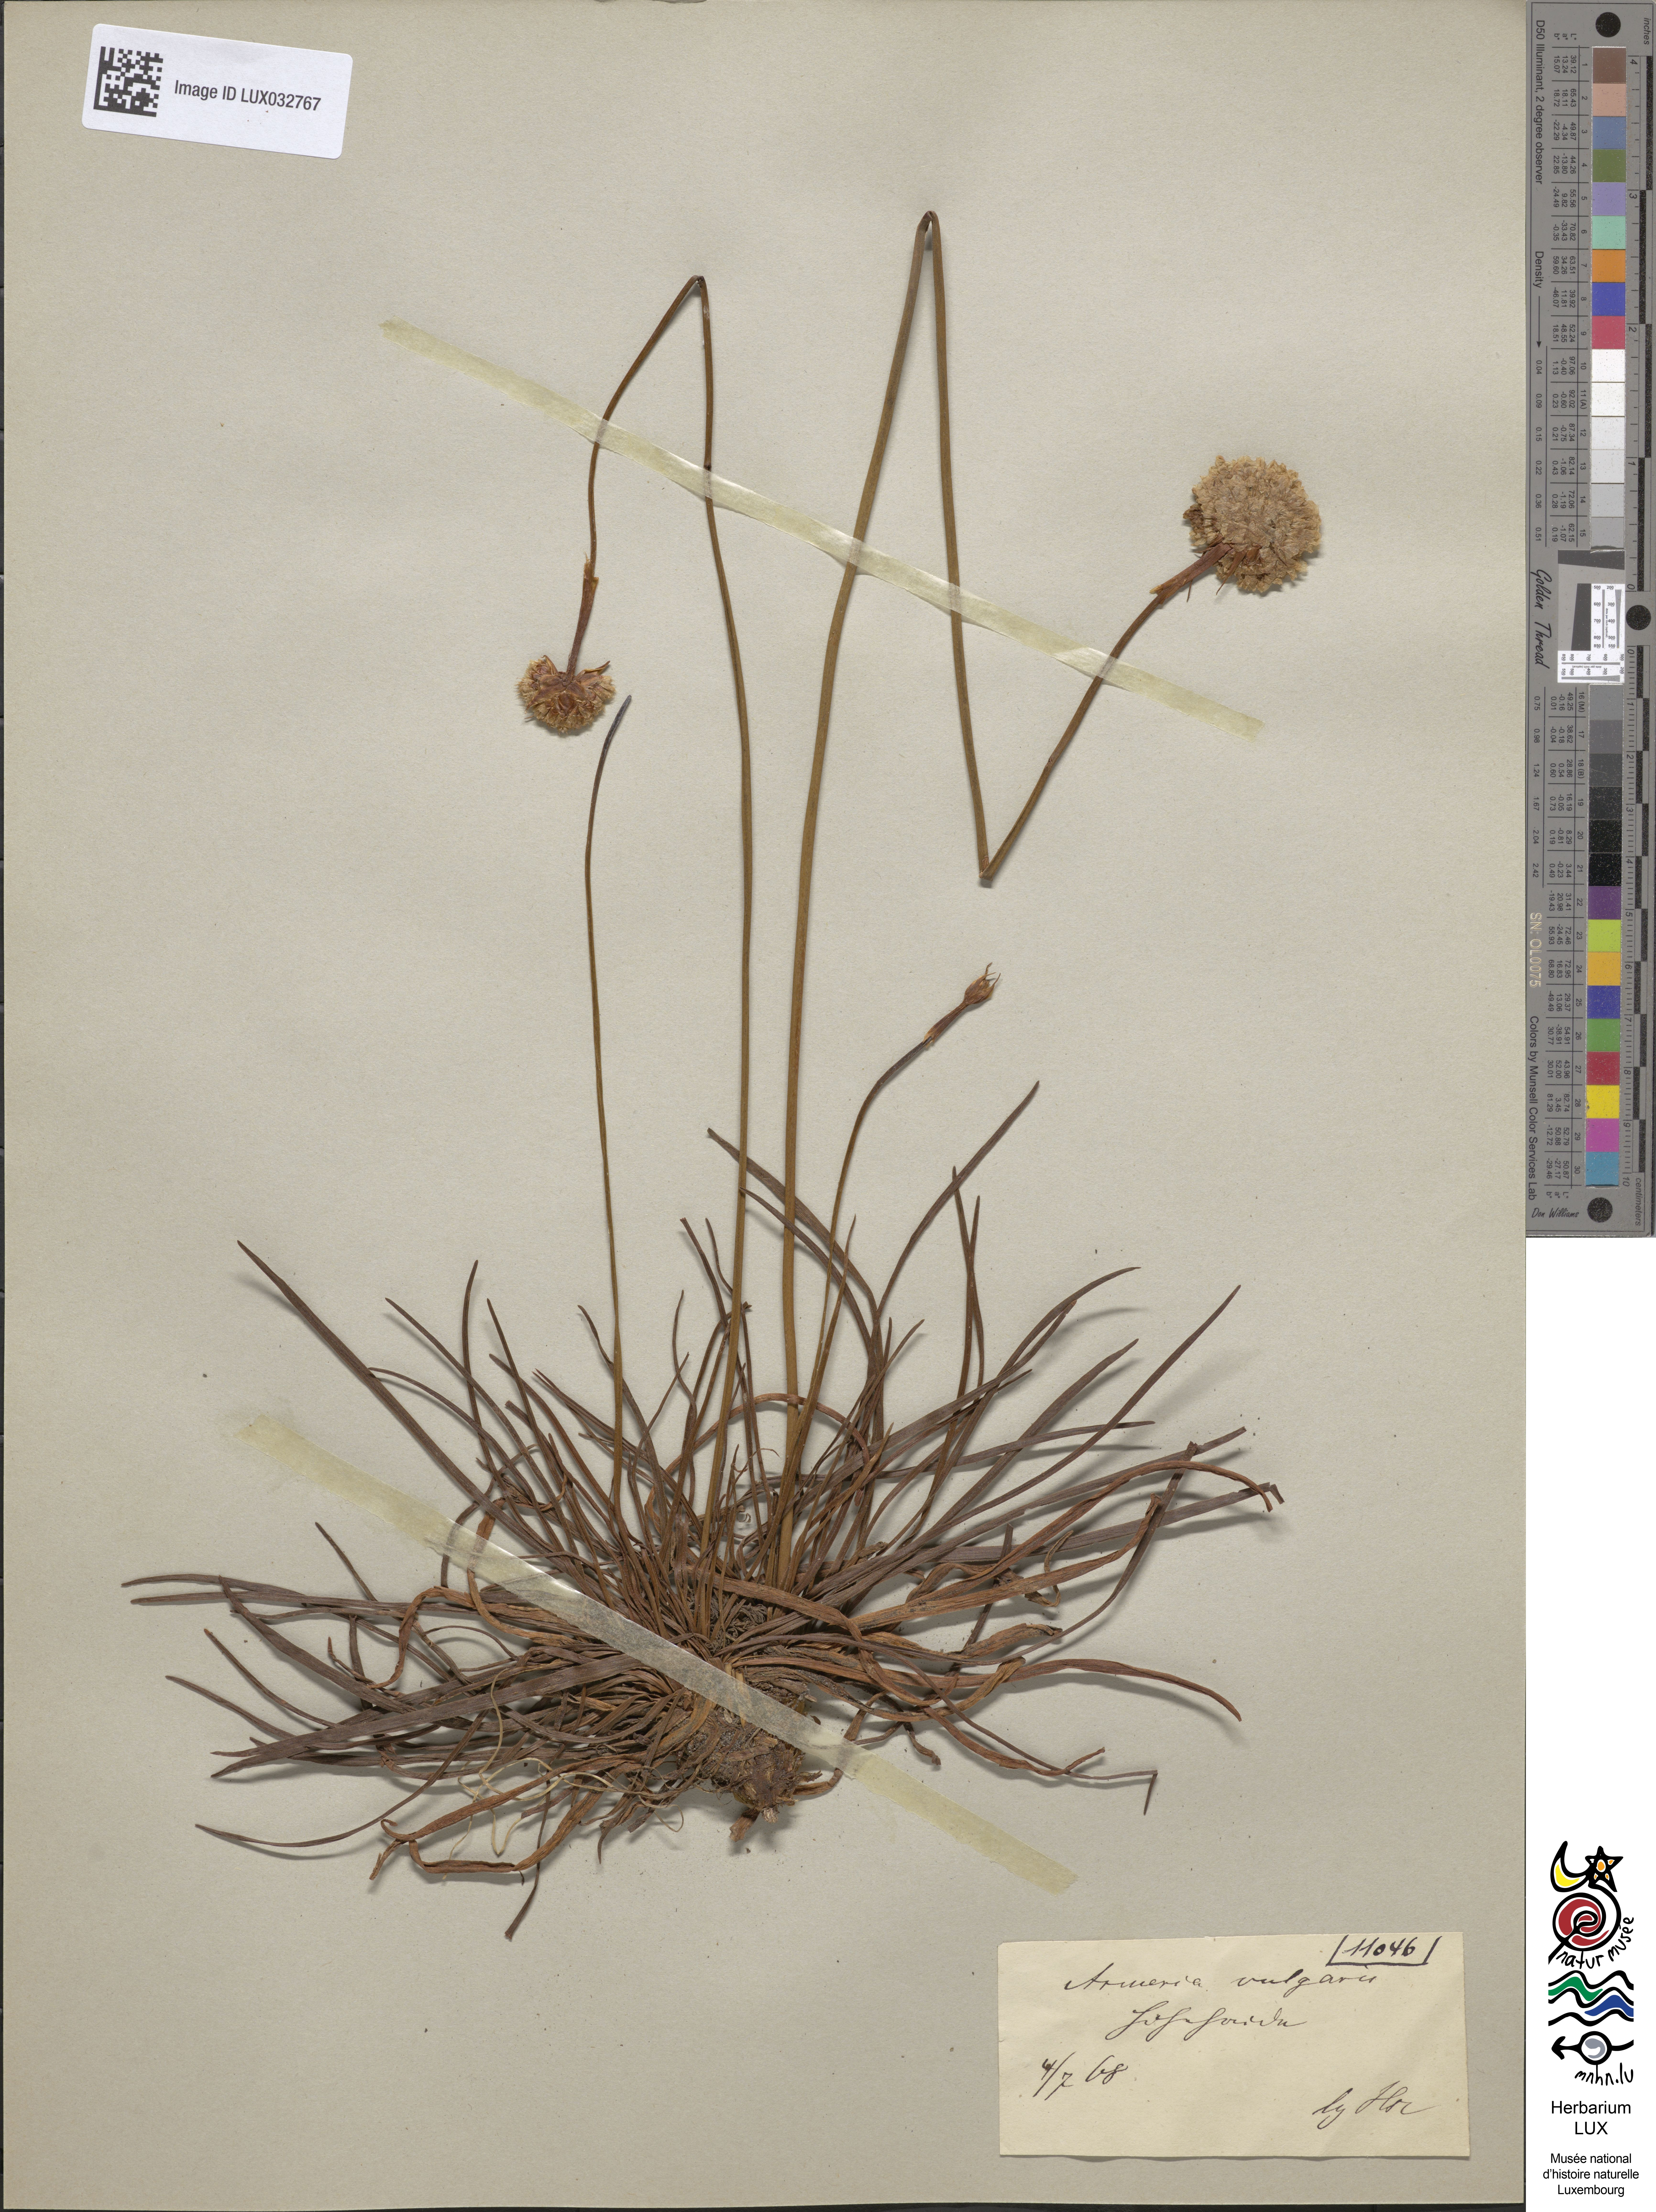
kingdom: Plantae
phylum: Tracheophyta
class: Magnoliopsida
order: Caryophyllales
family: Plumbaginaceae
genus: Armeria
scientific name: Armeria maritima
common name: Thrift
